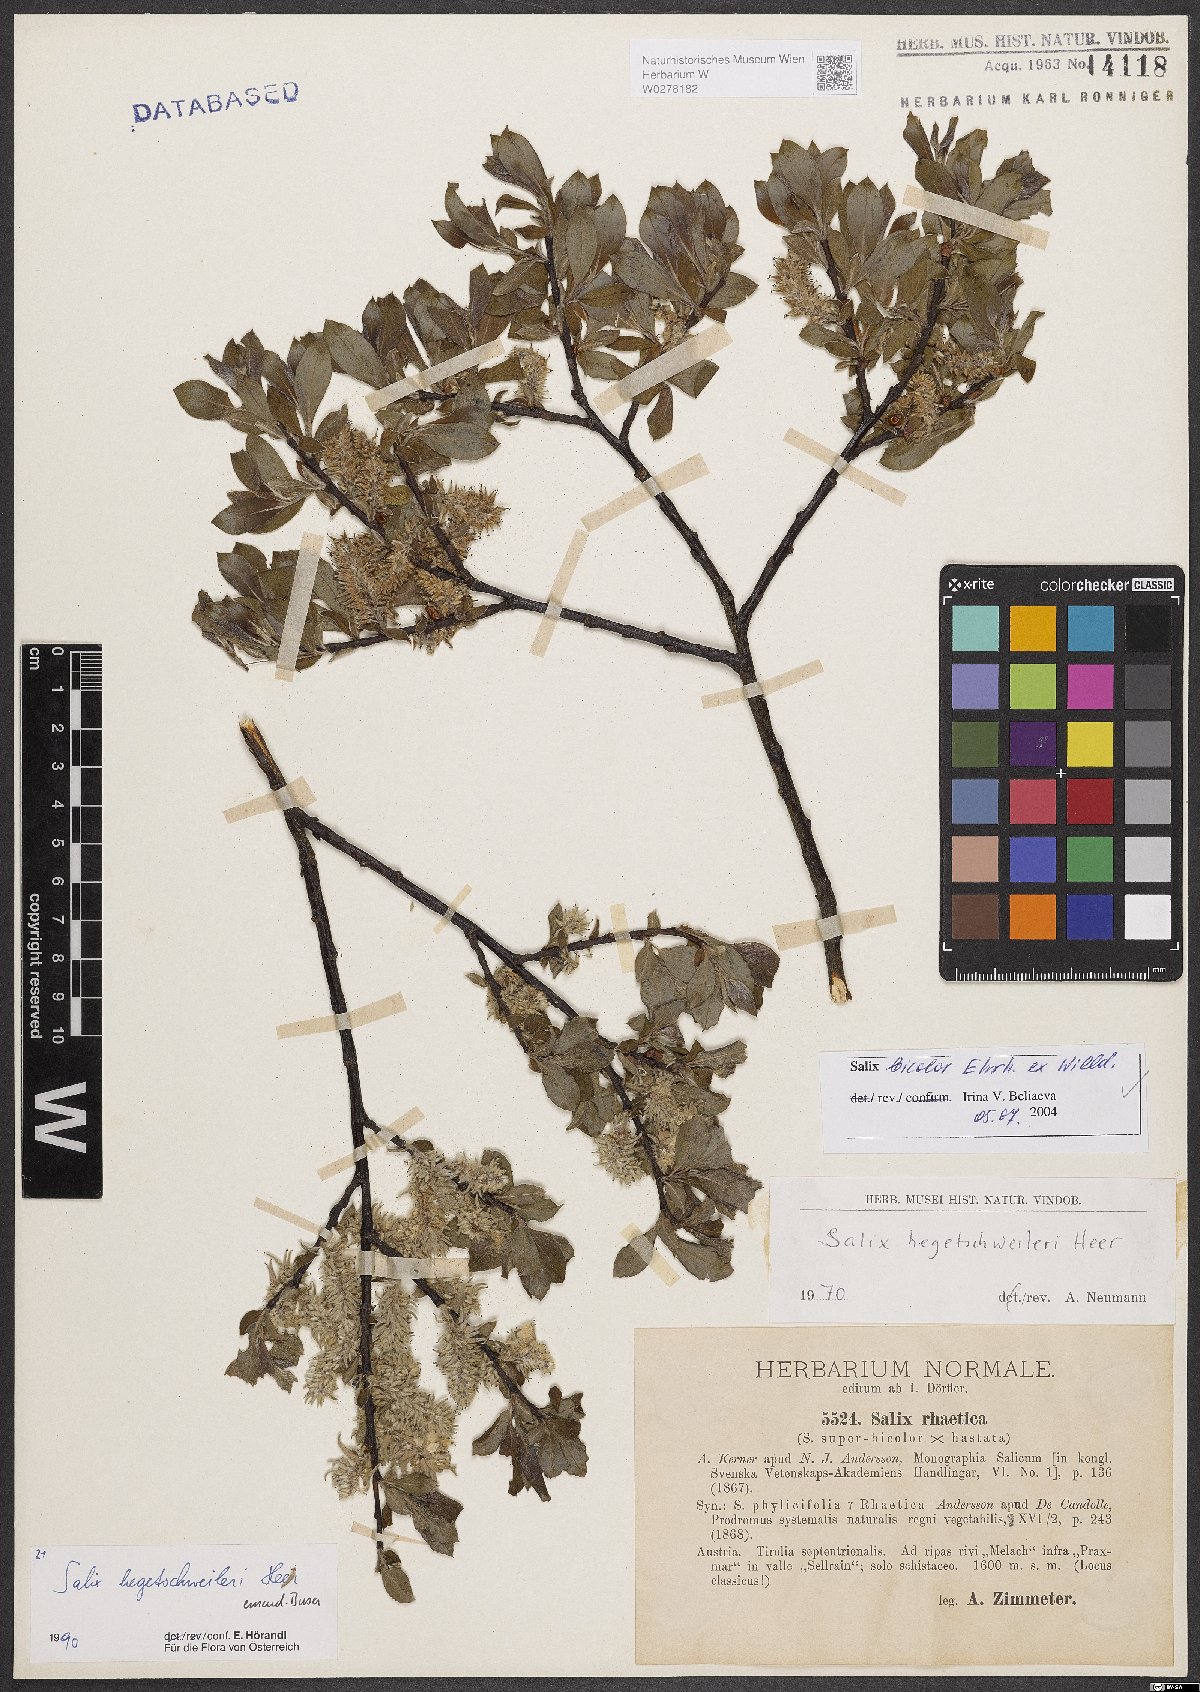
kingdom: Plantae
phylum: Tracheophyta
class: Magnoliopsida
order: Malpighiales
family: Salicaceae
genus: Salix
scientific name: Salix bicolor
